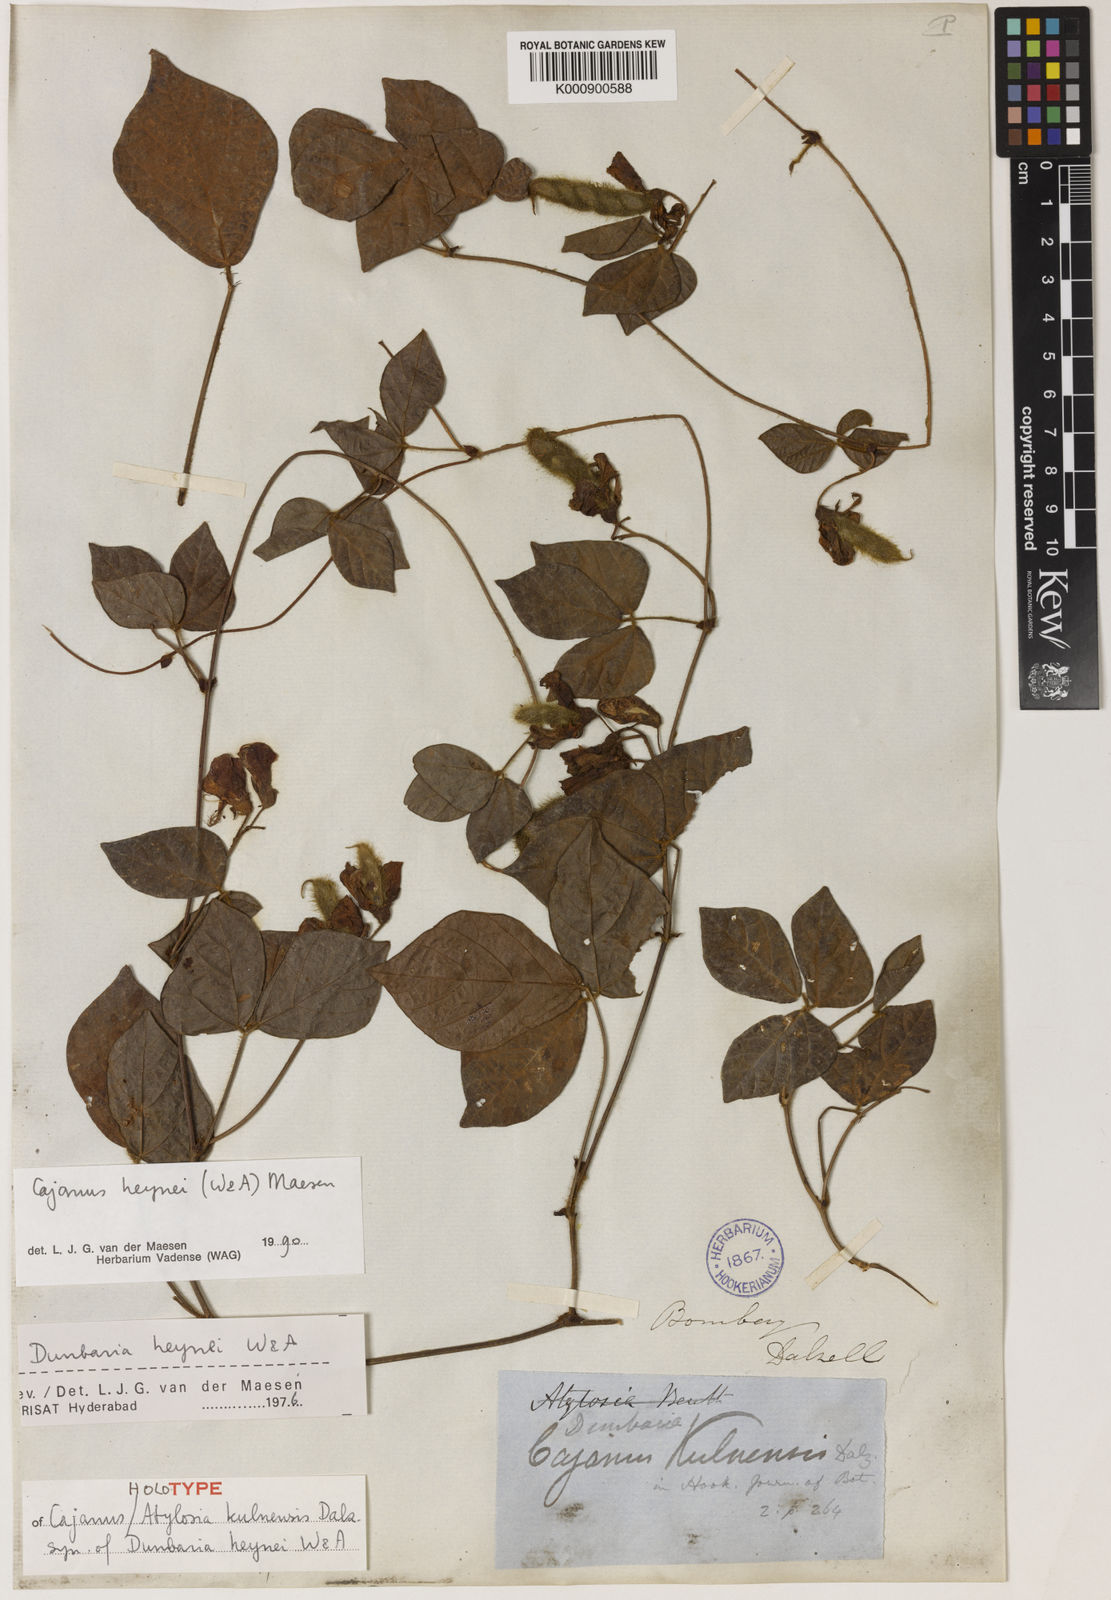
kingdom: Plantae
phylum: Tracheophyta
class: Magnoliopsida
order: Fabales
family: Fabaceae
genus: Cajanus
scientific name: Cajanus heynei
